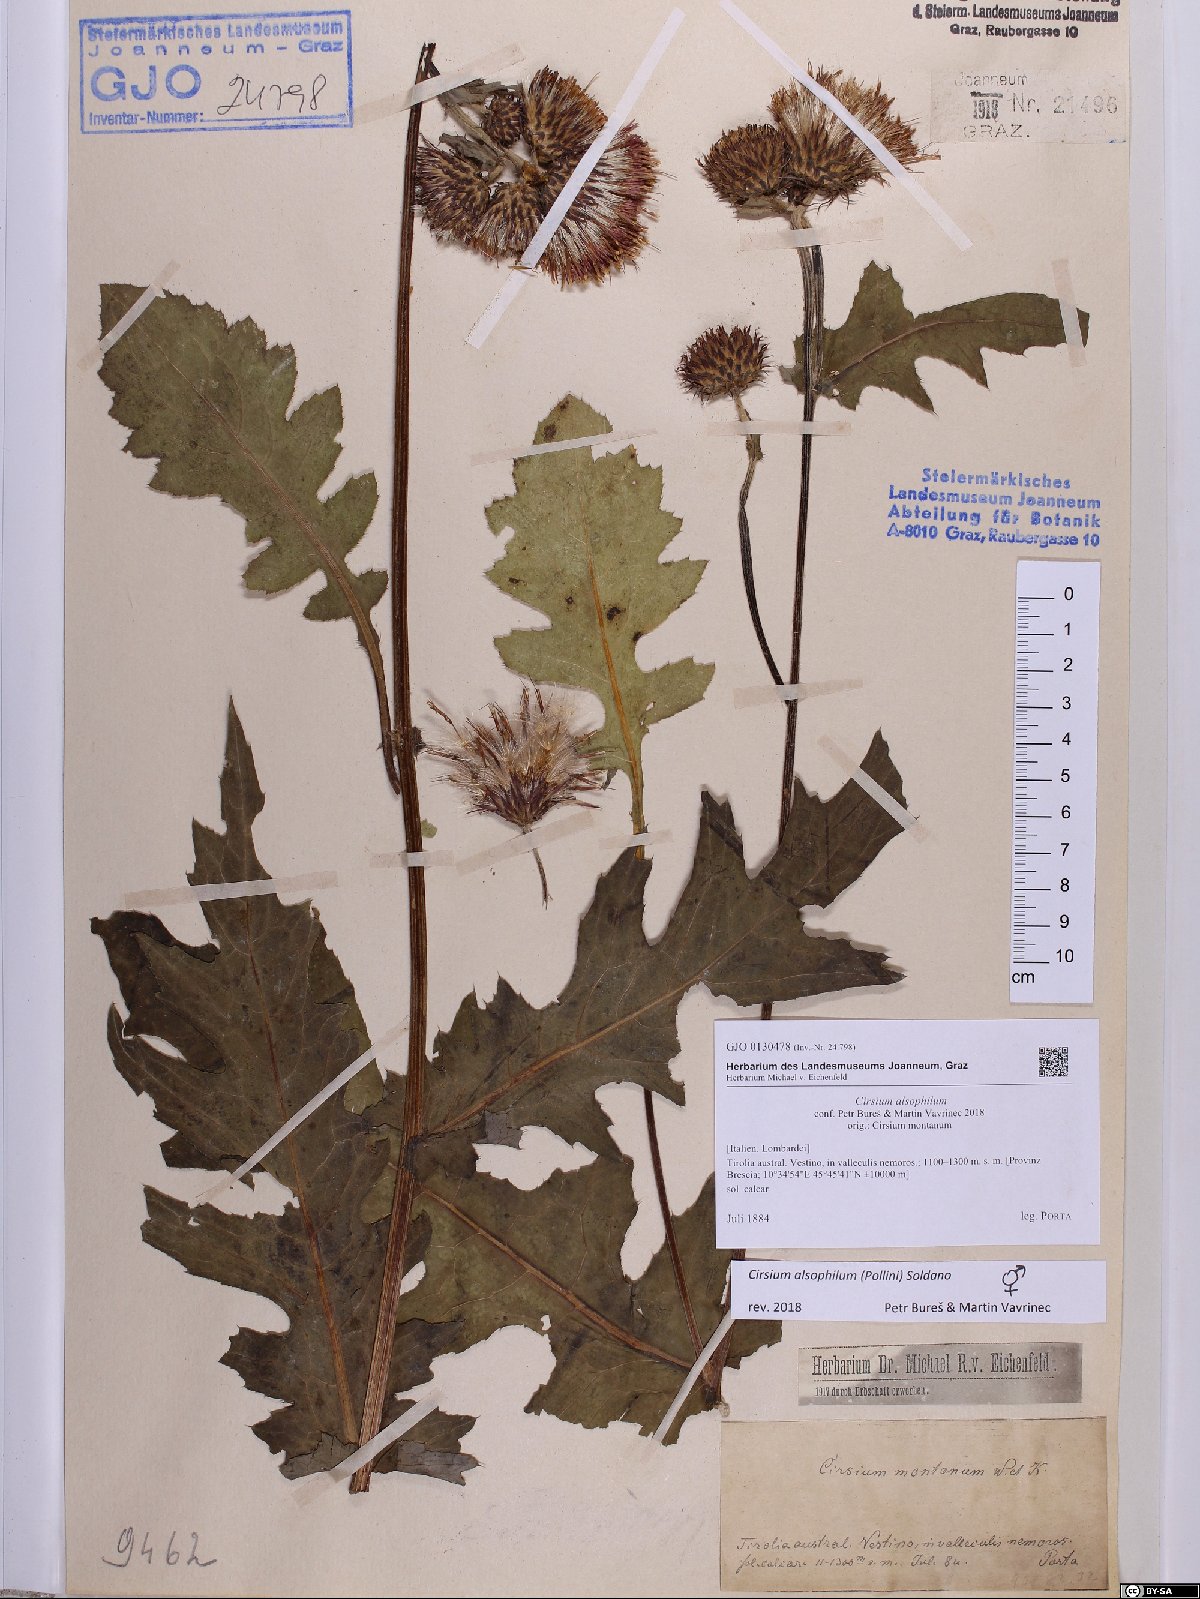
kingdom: Plantae
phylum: Tracheophyta
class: Magnoliopsida
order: Asterales
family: Asteraceae
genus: Cirsium
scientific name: Cirsium alsophilum
